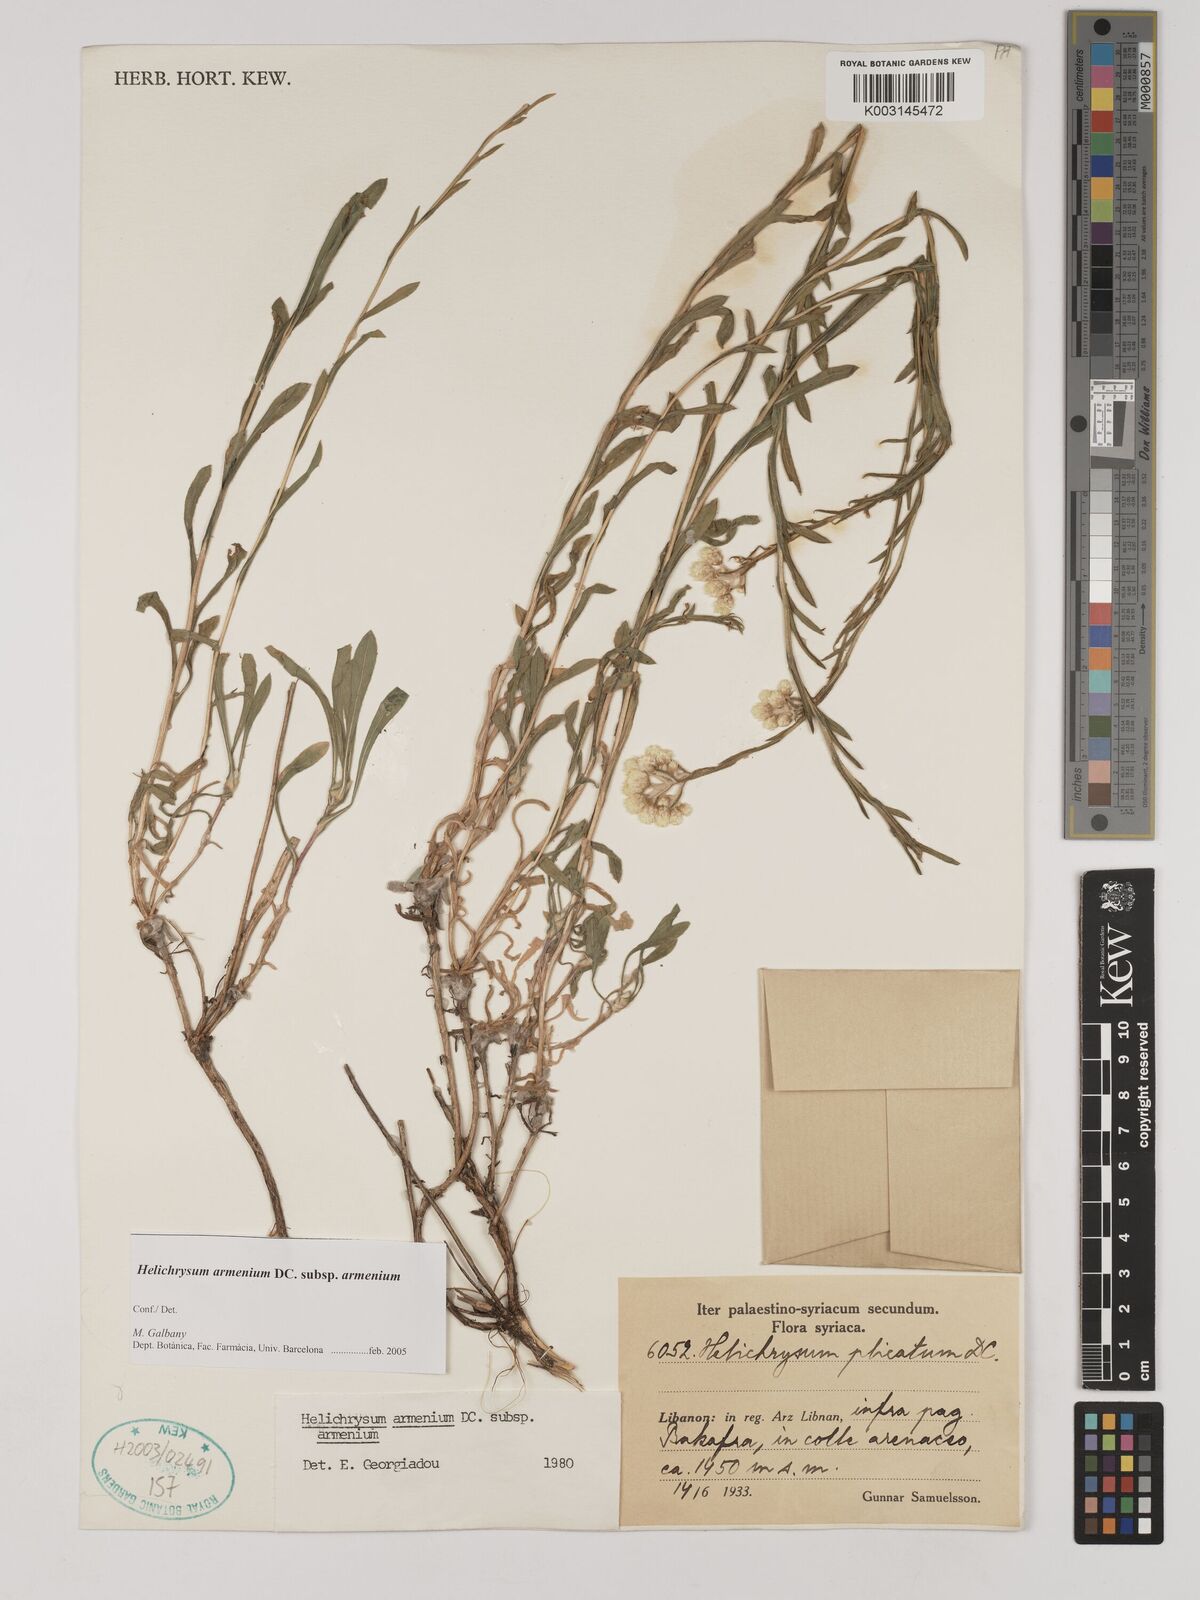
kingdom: Plantae
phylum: Tracheophyta
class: Magnoliopsida
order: Asterales
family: Asteraceae
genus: Helichrysum
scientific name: Helichrysum armenium
